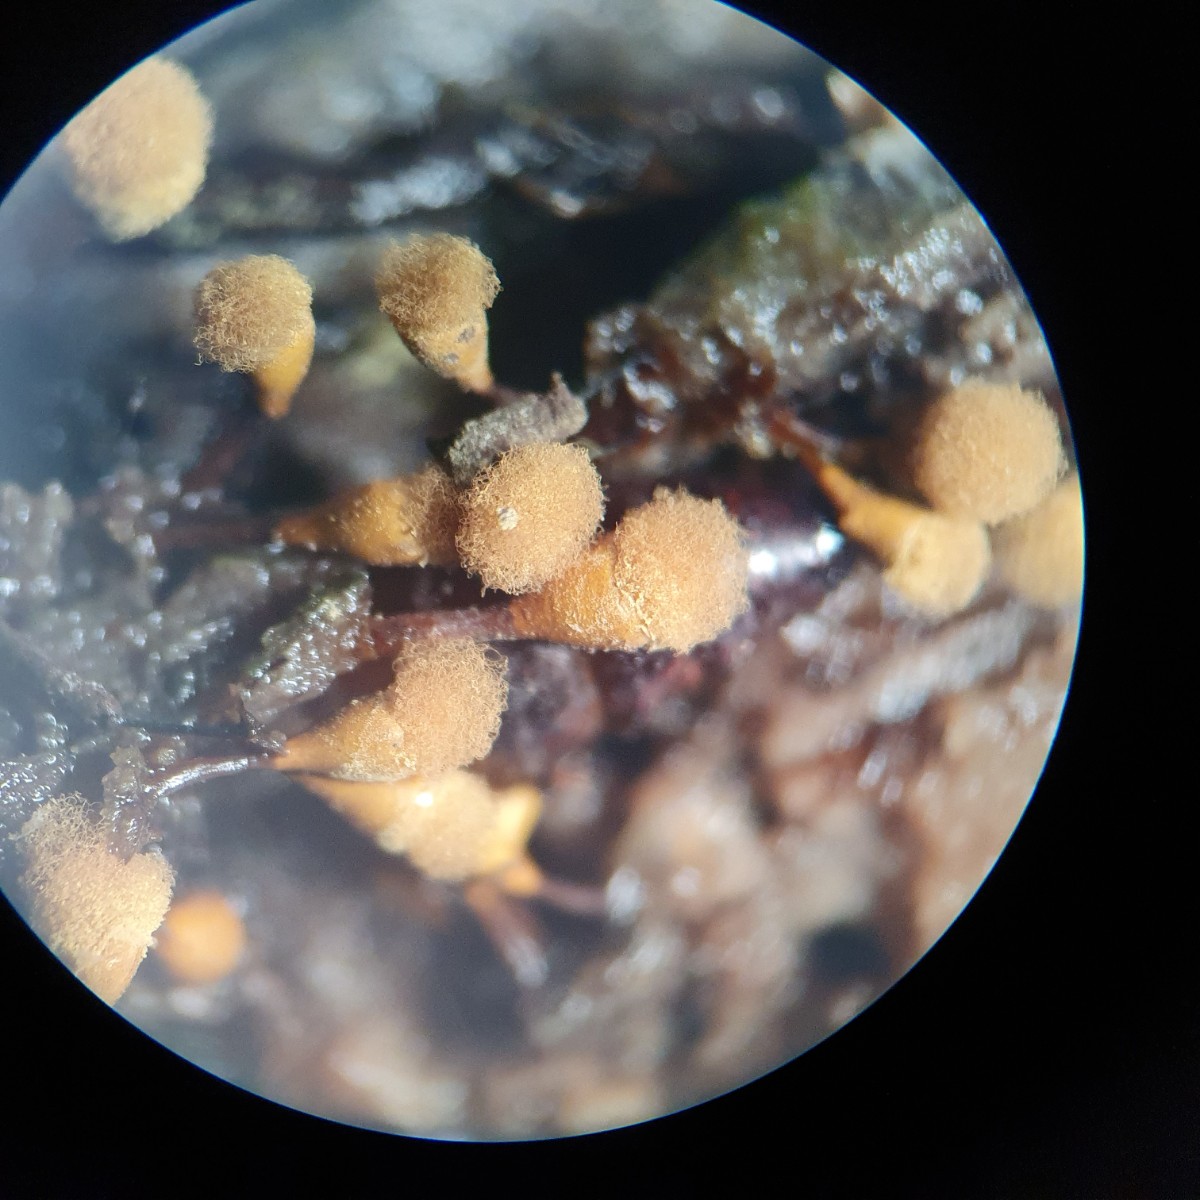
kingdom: Protozoa
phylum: Mycetozoa
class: Myxomycetes
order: Trichiales
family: Arcyriaceae
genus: Hemitrichia
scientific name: Hemitrichia clavata
